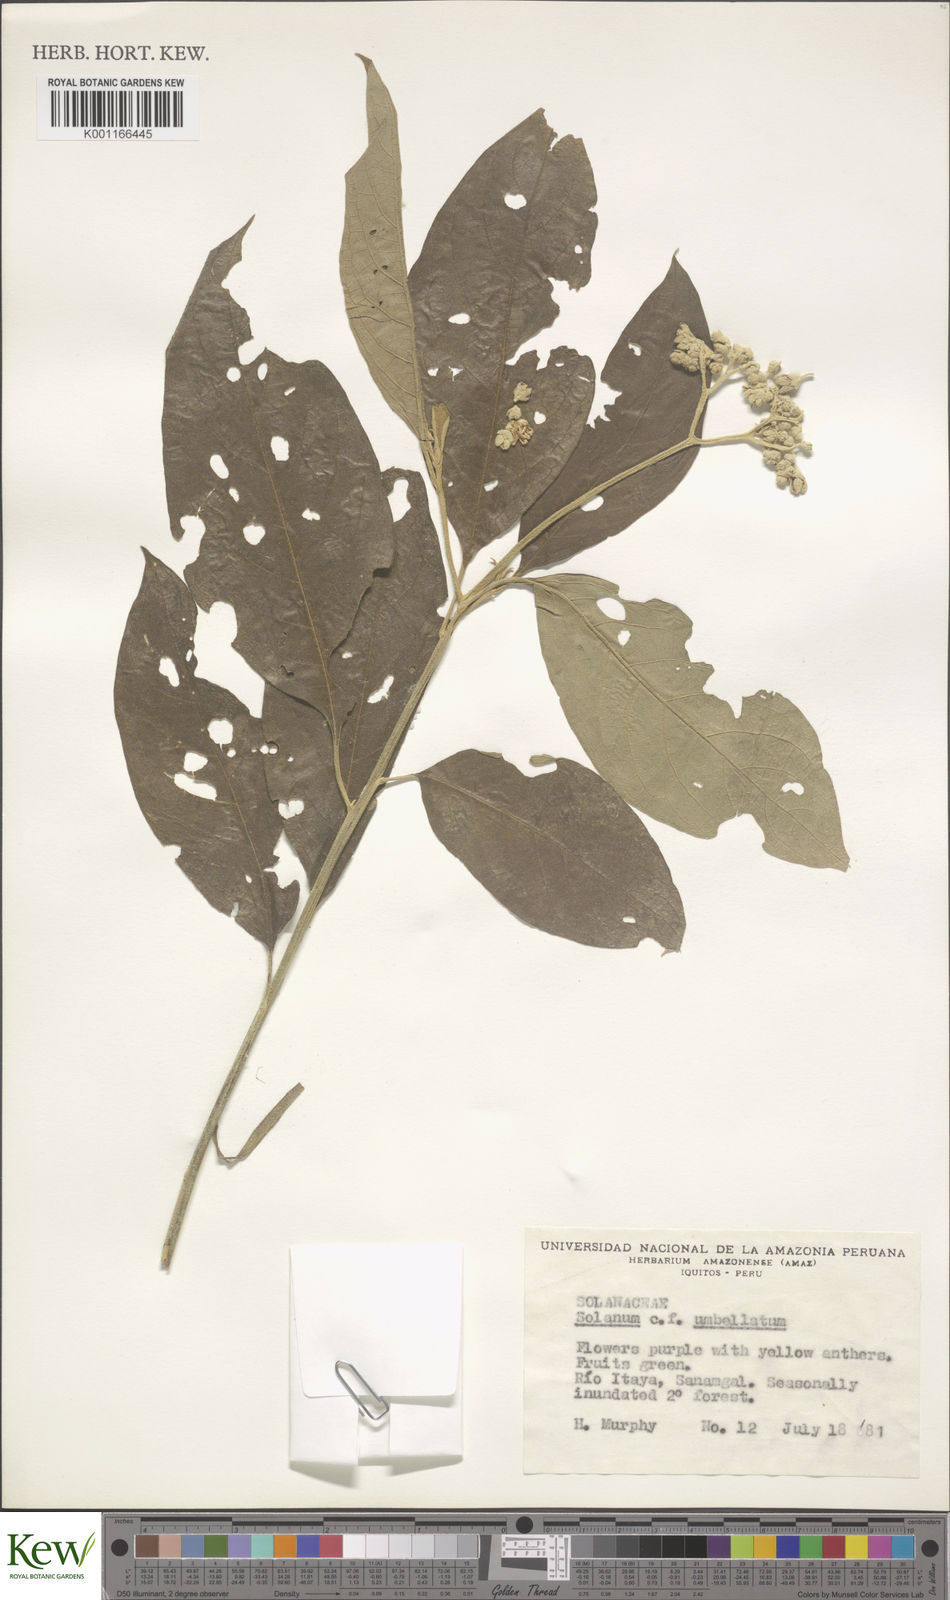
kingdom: Plantae
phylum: Tracheophyta
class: Magnoliopsida
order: Solanales
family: Solanaceae
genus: Solanum
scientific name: Solanum umbellatum
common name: Nightshade
